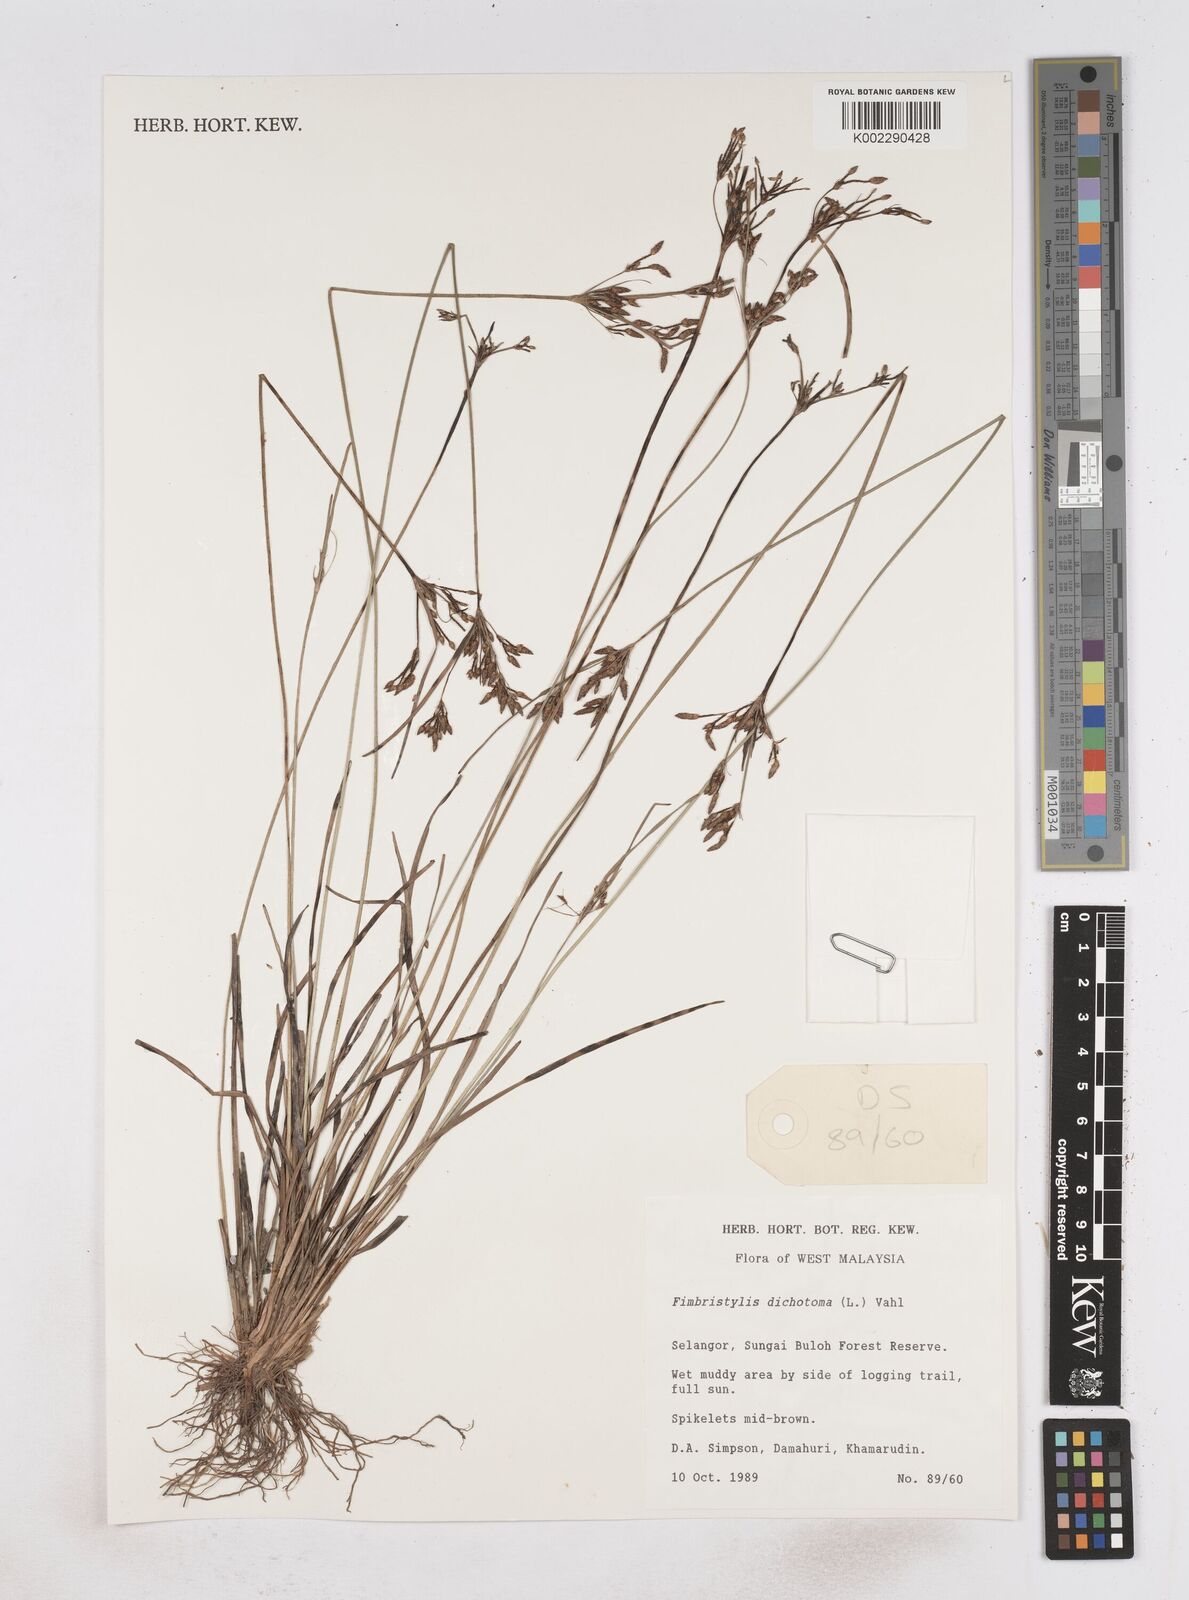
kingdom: Plantae
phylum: Tracheophyta
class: Liliopsida
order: Poales
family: Cyperaceae
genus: Fimbristylis
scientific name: Fimbristylis dichotoma
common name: Forked fimbry
